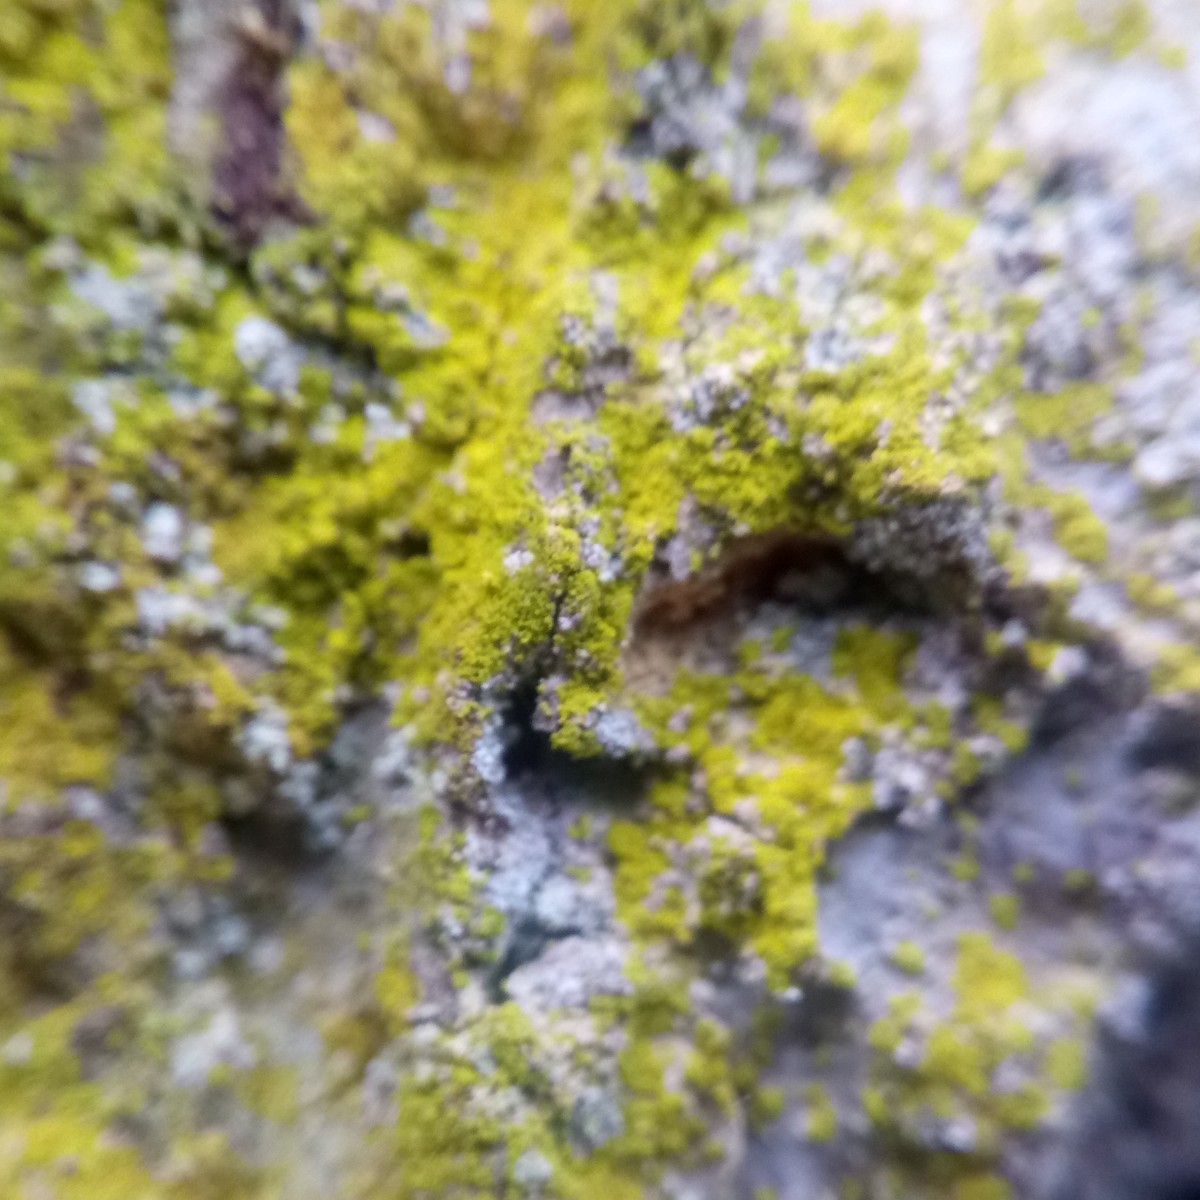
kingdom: Fungi
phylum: Ascomycota
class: Arthoniomycetes
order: Arthoniales
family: Chrysotrichaceae
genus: Chrysothrix
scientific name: Chrysothrix candelaris
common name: gul støvlav
